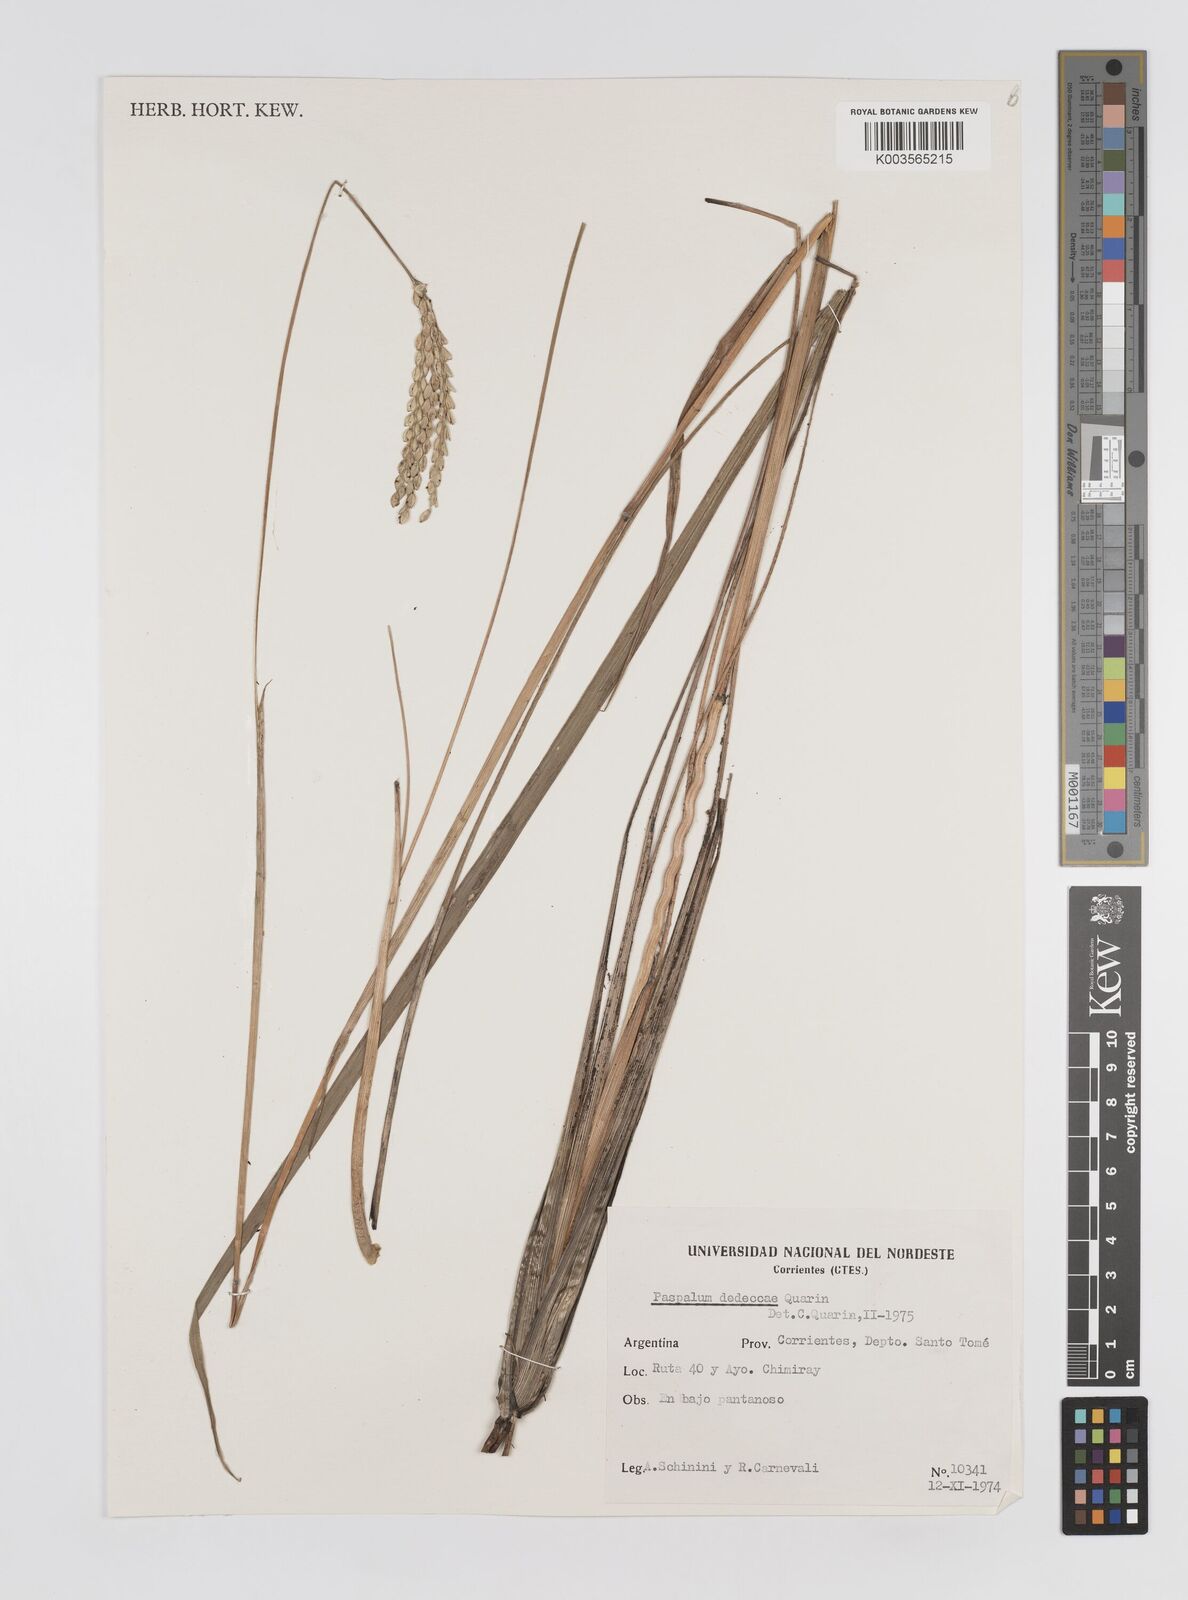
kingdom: Plantae
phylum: Tracheophyta
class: Liliopsida
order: Poales
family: Poaceae
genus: Paspalum
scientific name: Paspalum dedeccae
